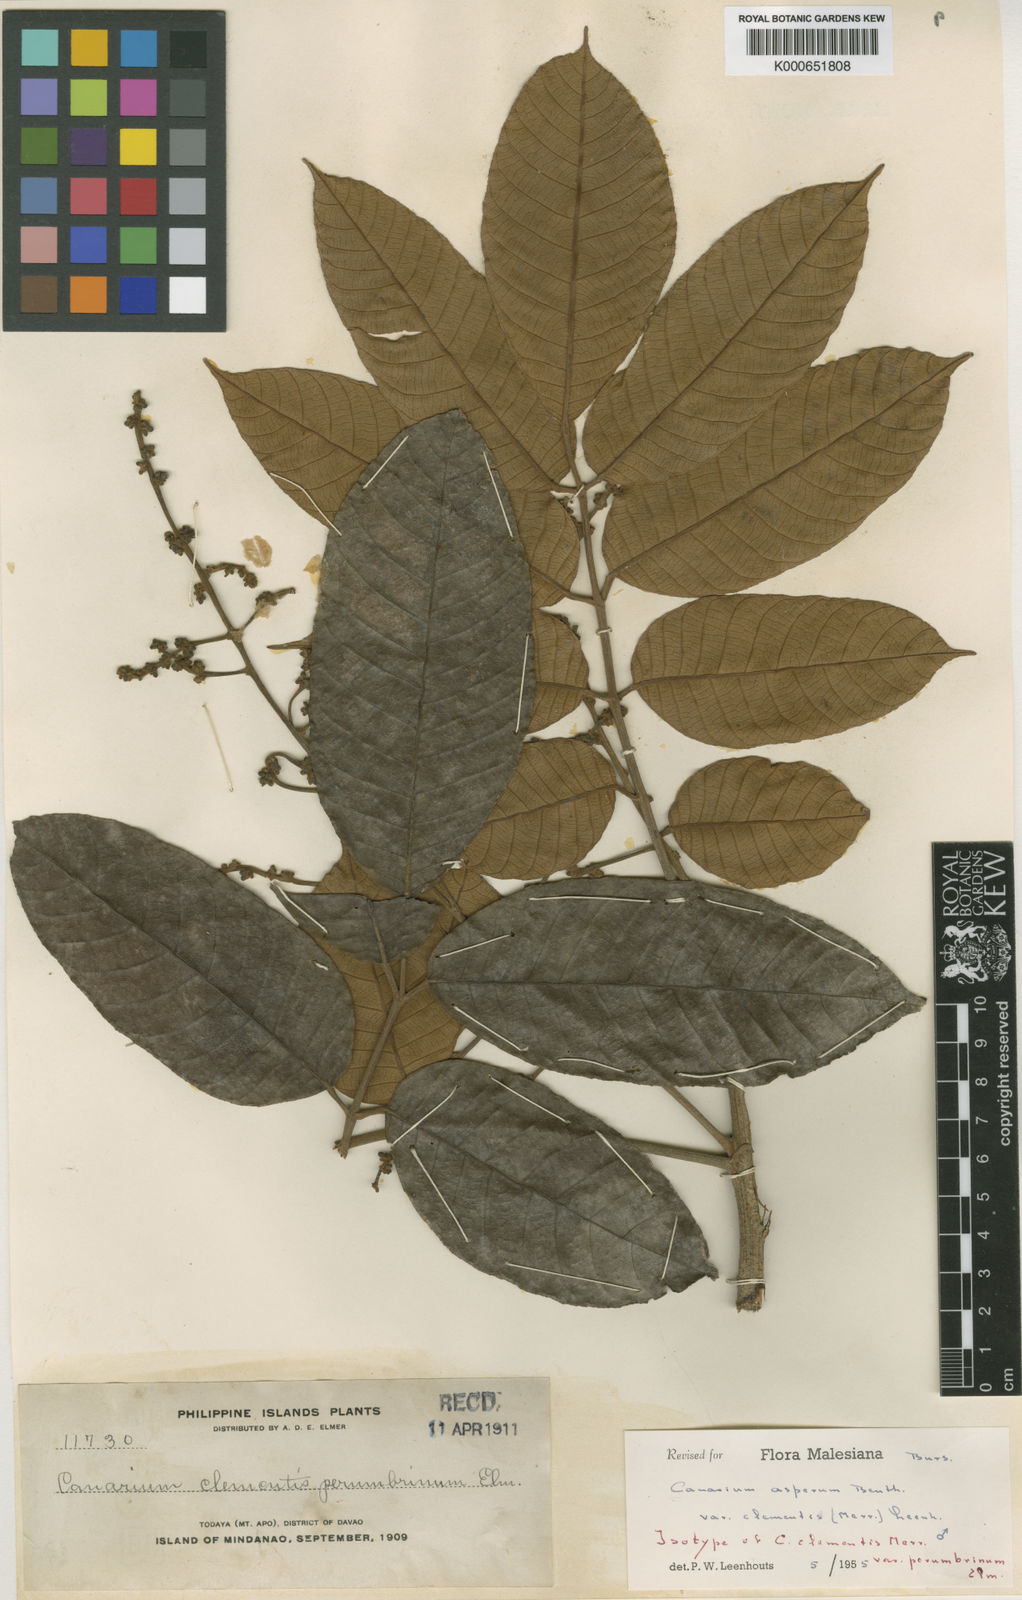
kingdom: Plantae
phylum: Tracheophyta
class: Magnoliopsida
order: Sapindales
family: Burseraceae
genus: Canarium
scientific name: Canarium asperum
